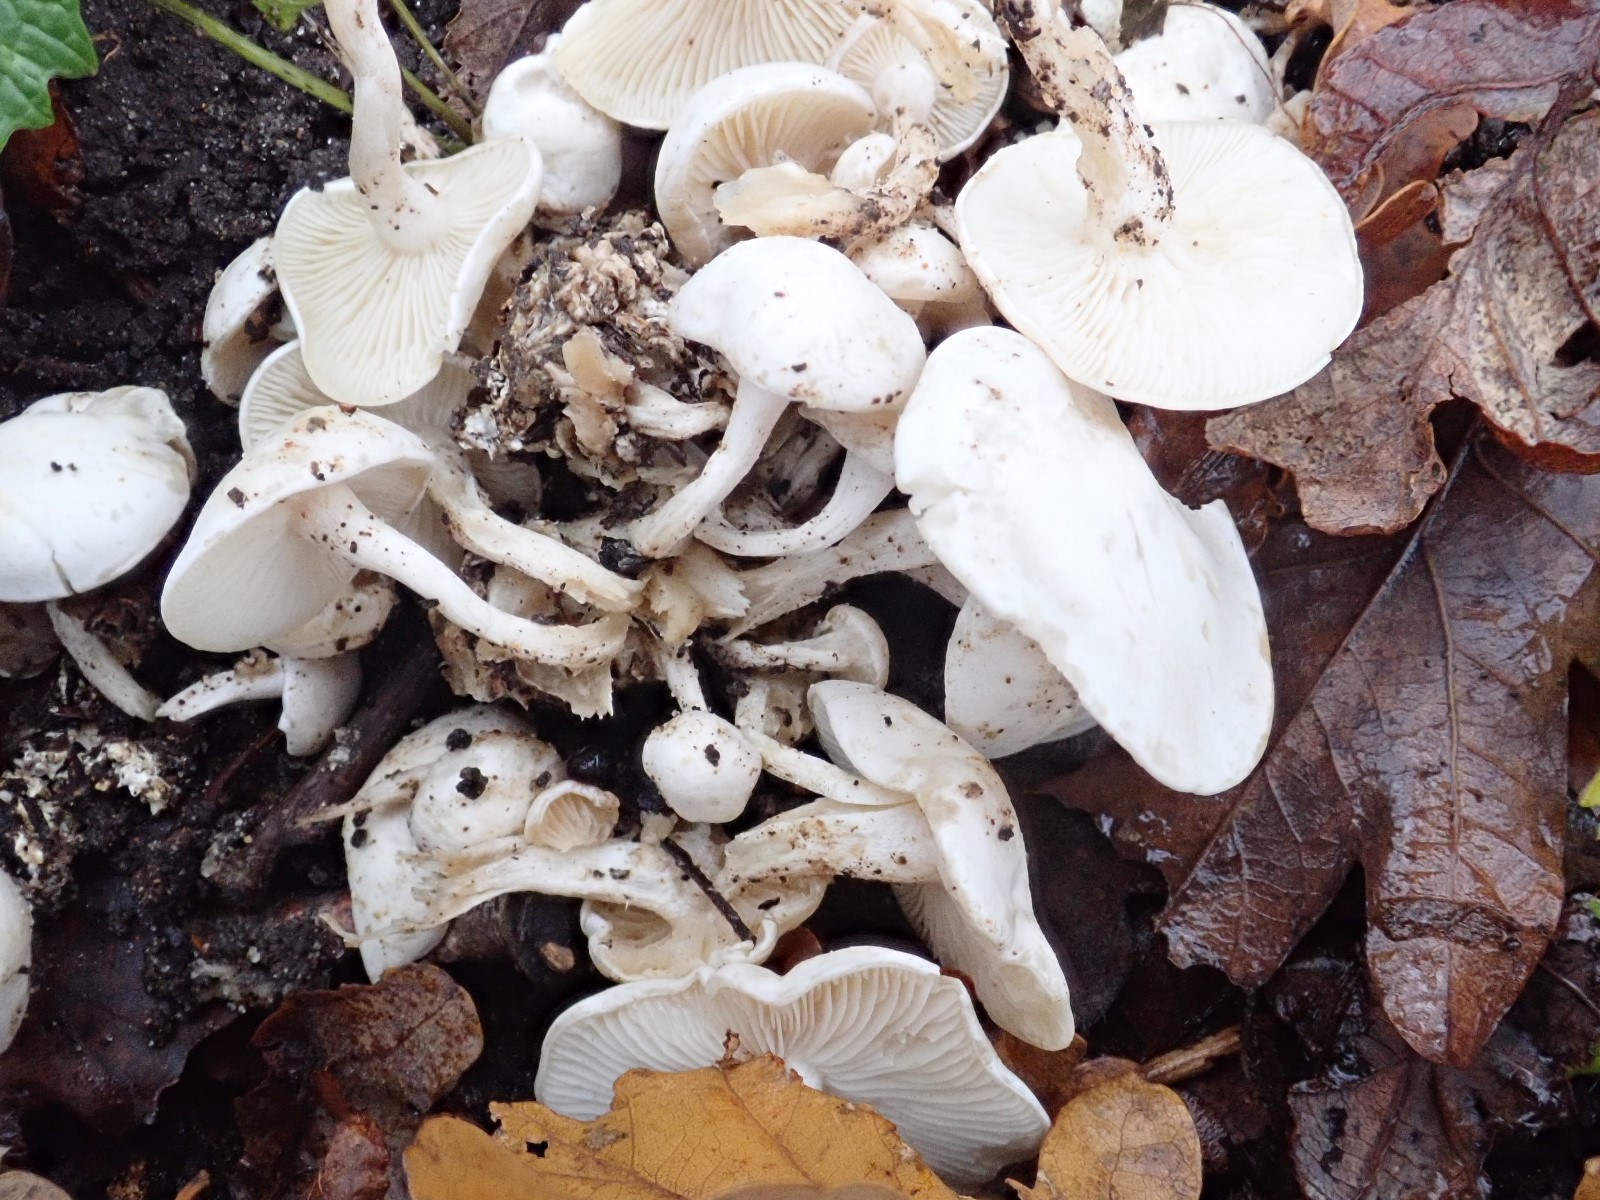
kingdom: Fungi
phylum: Basidiomycota
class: Agaricomycetes
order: Agaricales
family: Tricholomataceae
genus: Leucocybe
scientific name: Leucocybe connata
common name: knippe-tragthat
